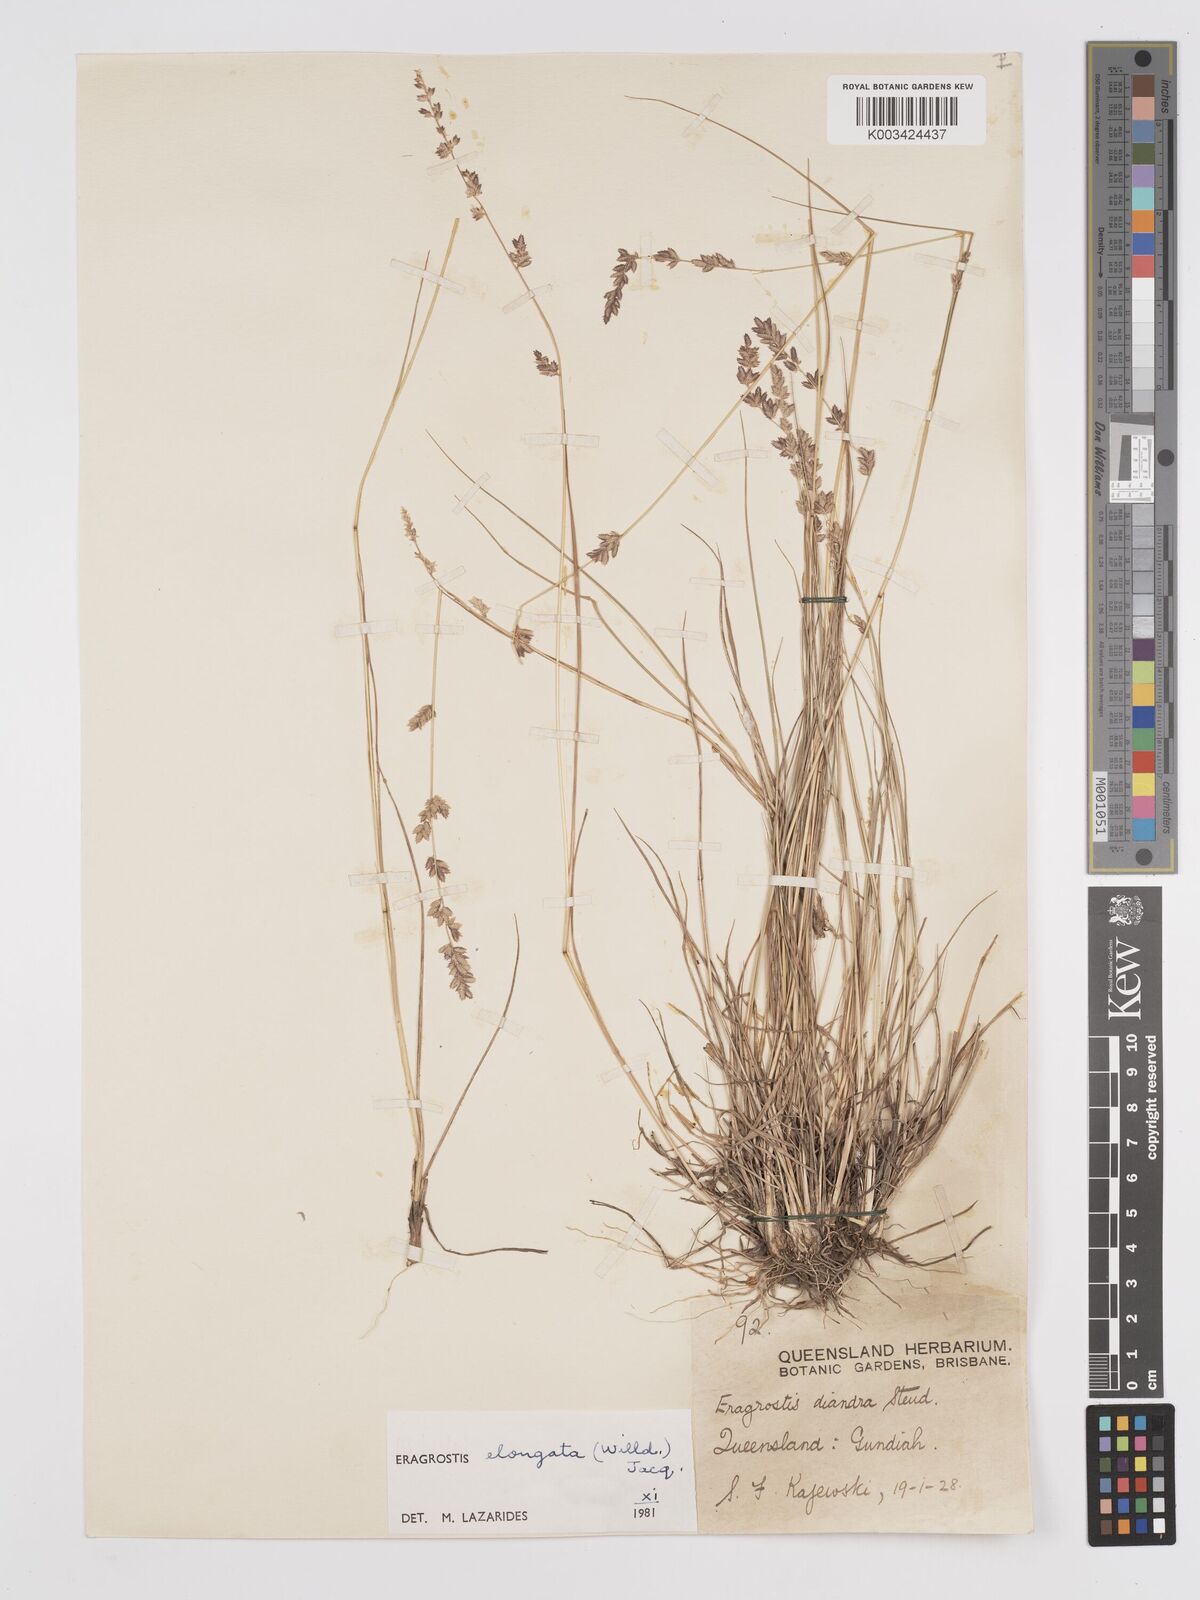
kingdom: Plantae
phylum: Tracheophyta
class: Liliopsida
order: Poales
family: Poaceae
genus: Eragrostis
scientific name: Eragrostis elongata
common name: Long lovegrass
